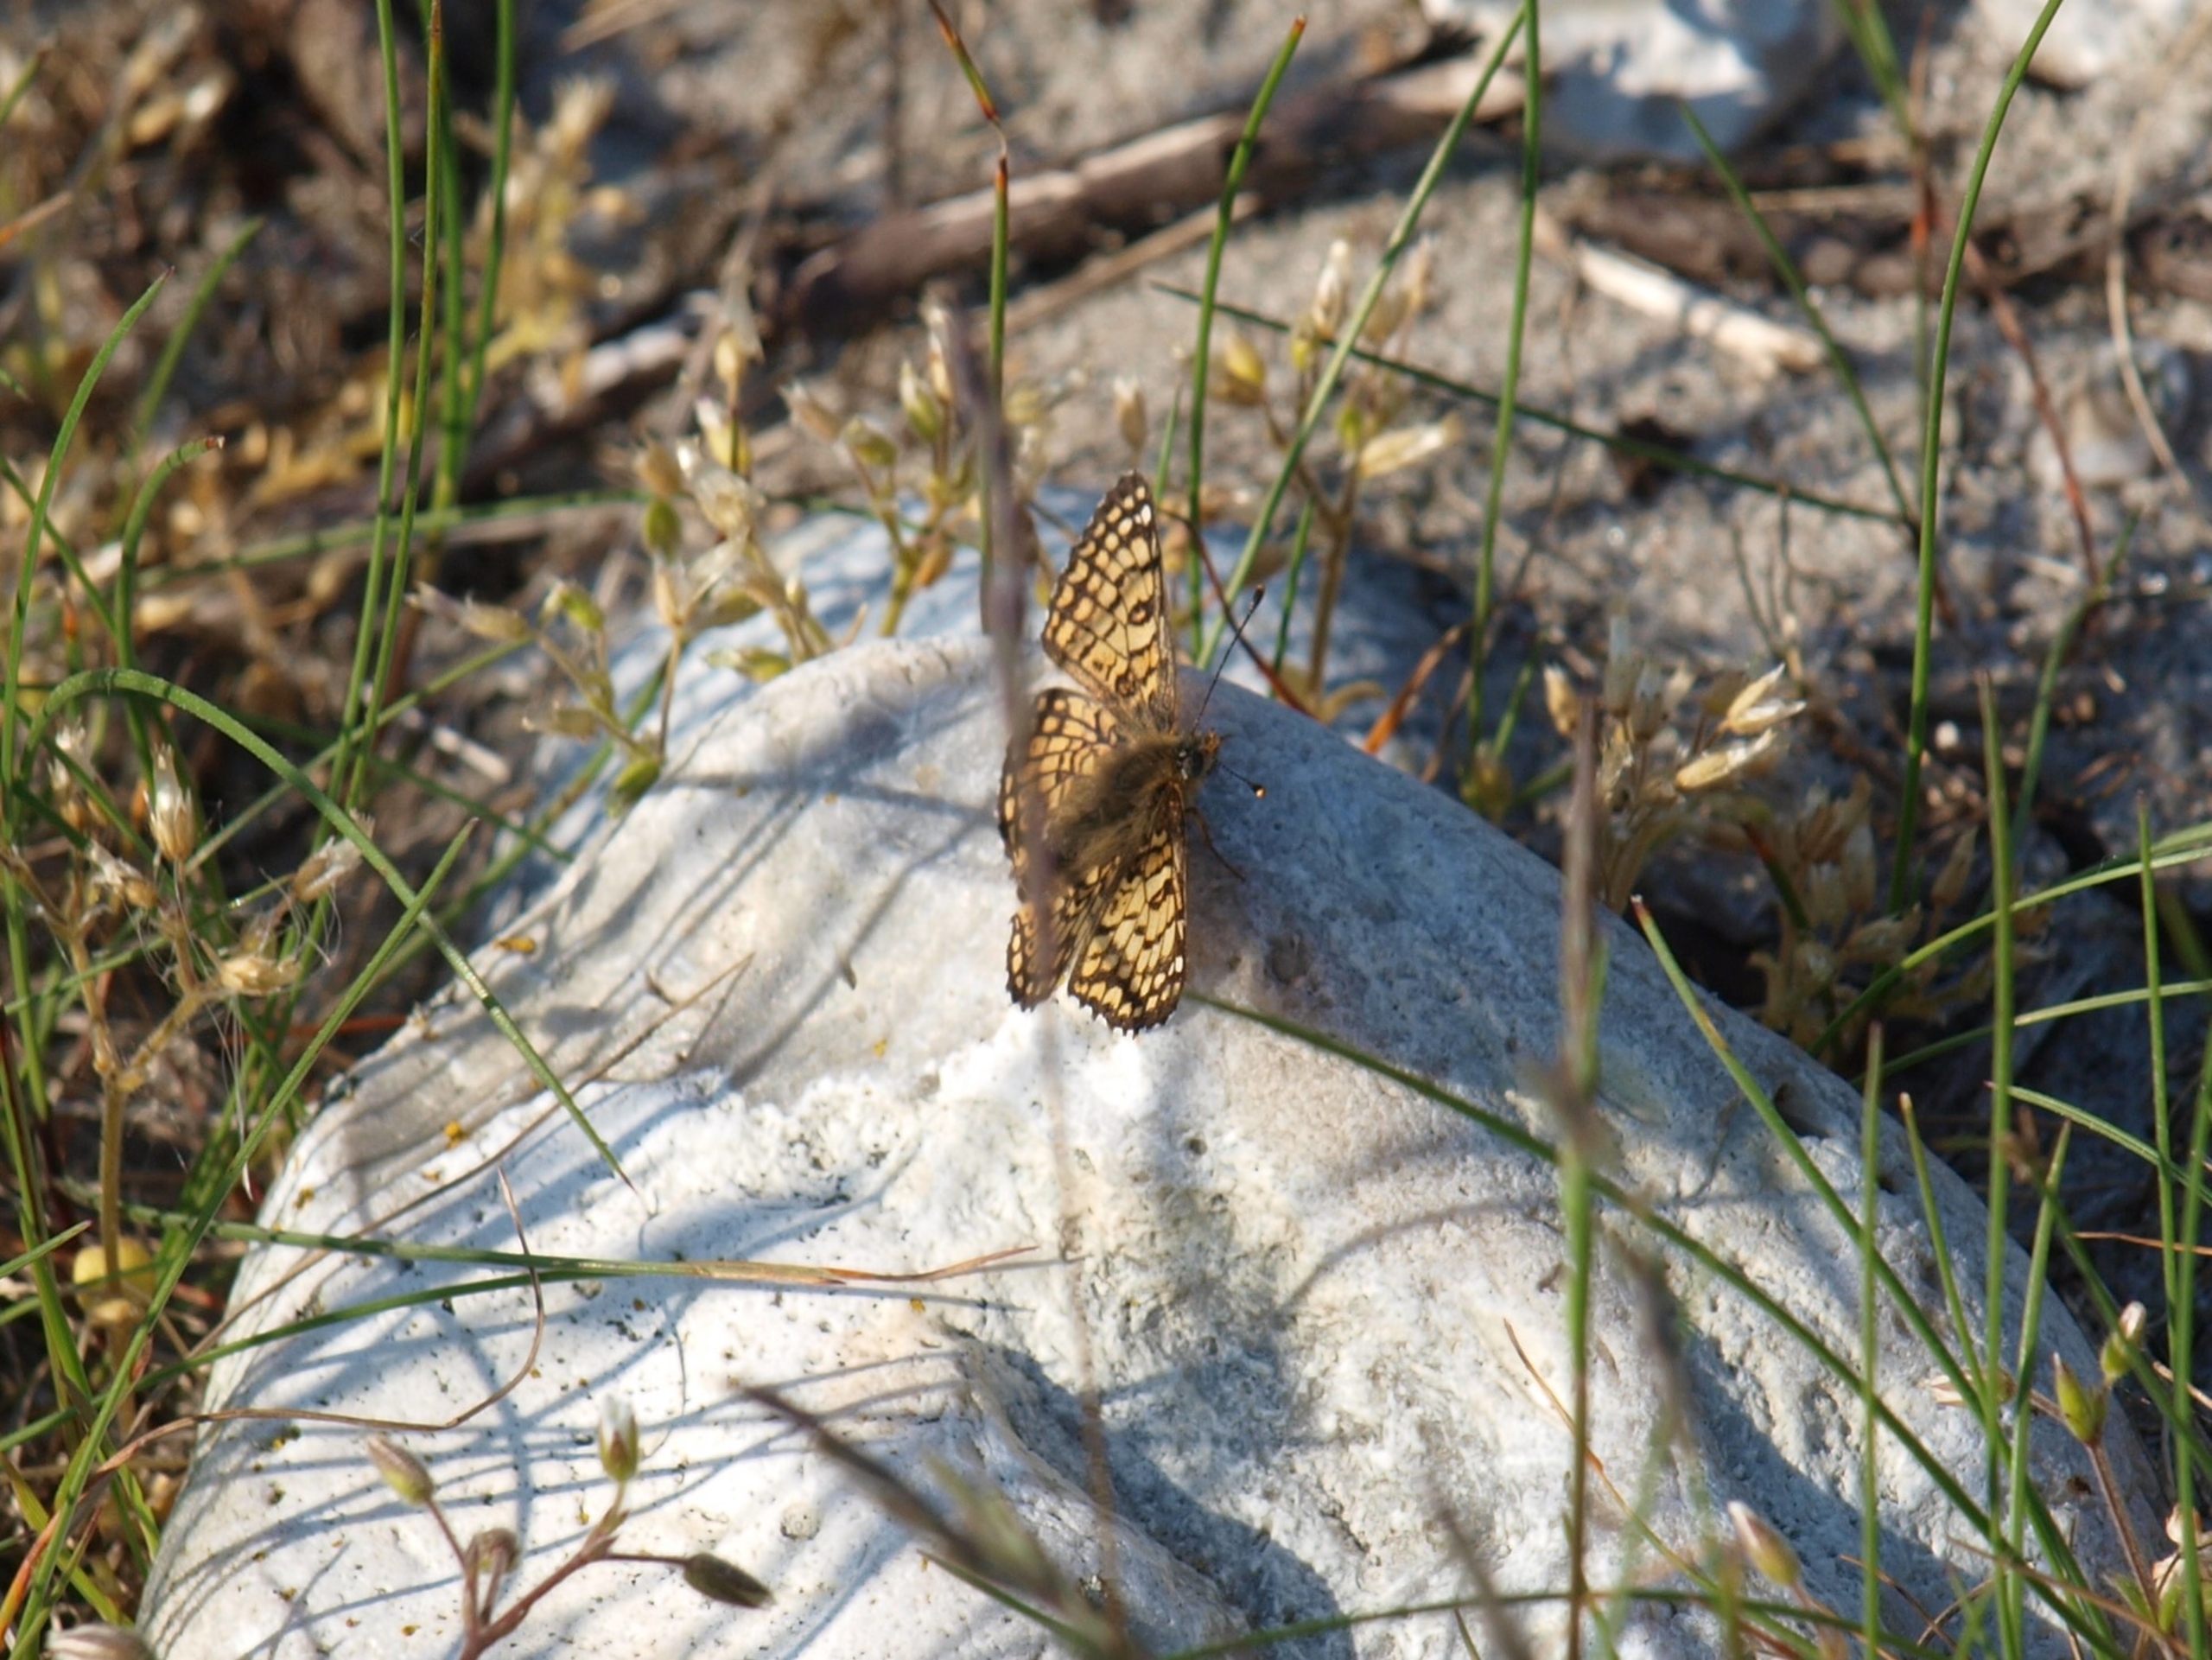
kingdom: Animalia
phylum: Arthropoda
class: Insecta
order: Lepidoptera
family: Nymphalidae
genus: Melitaea
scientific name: Melitaea cinxia
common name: Okkergul pletvinge
